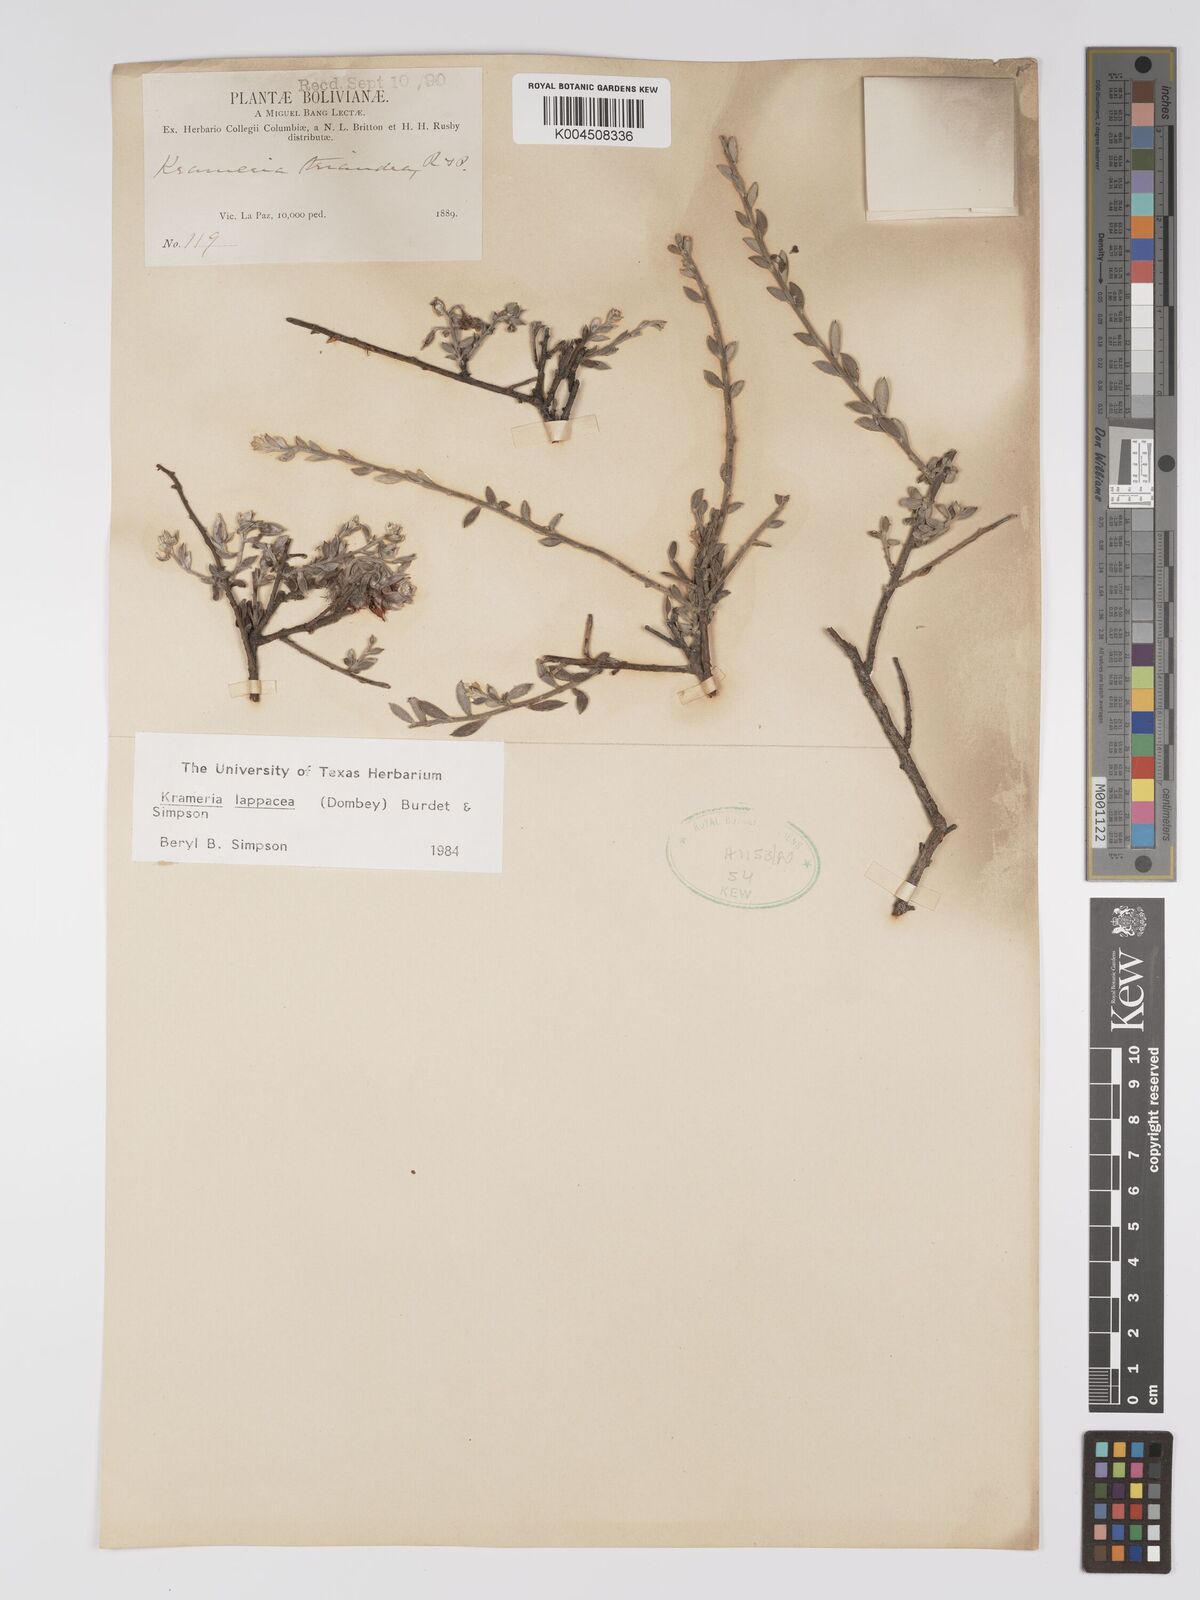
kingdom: Plantae
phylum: Tracheophyta
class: Magnoliopsida
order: Zygophyllales
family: Krameriaceae
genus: Krameria
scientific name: Krameria lappacea
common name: Rhatany
